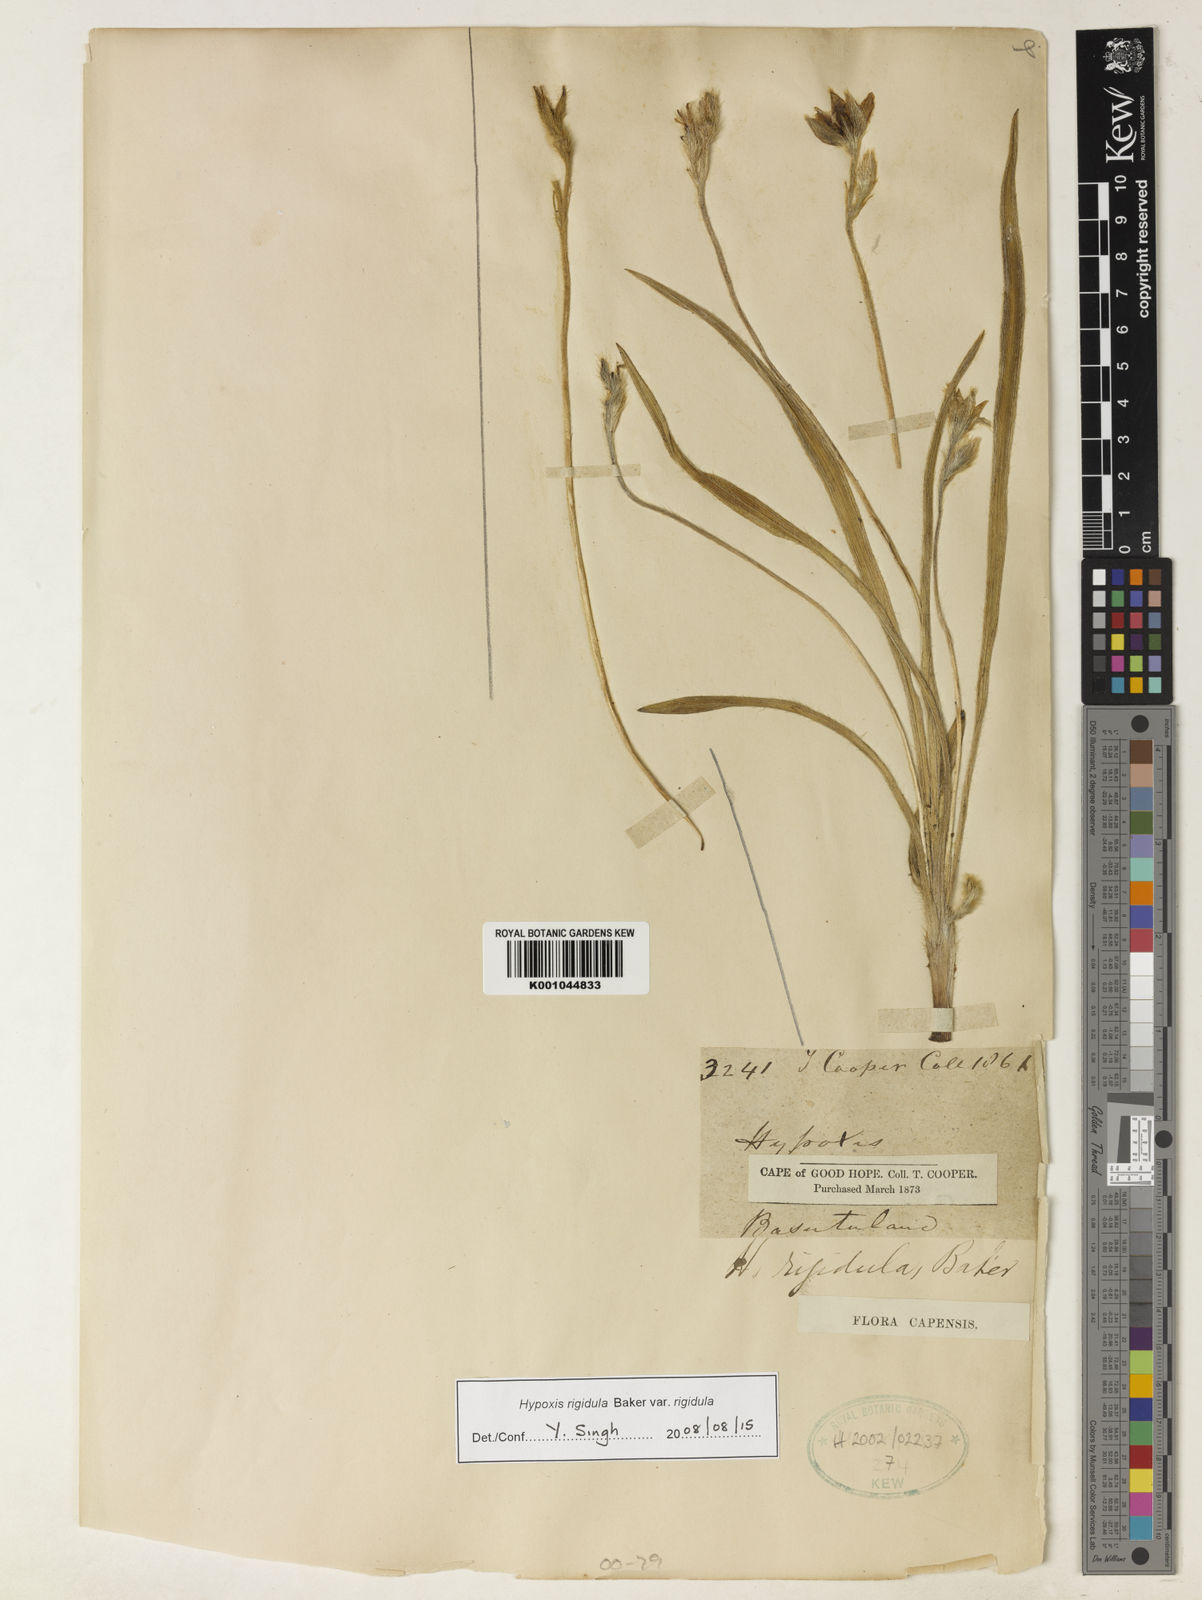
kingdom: Plantae
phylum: Tracheophyta
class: Liliopsida
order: Asparagales
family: Hypoxidaceae
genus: Hypoxis
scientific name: Hypoxis rigidula
